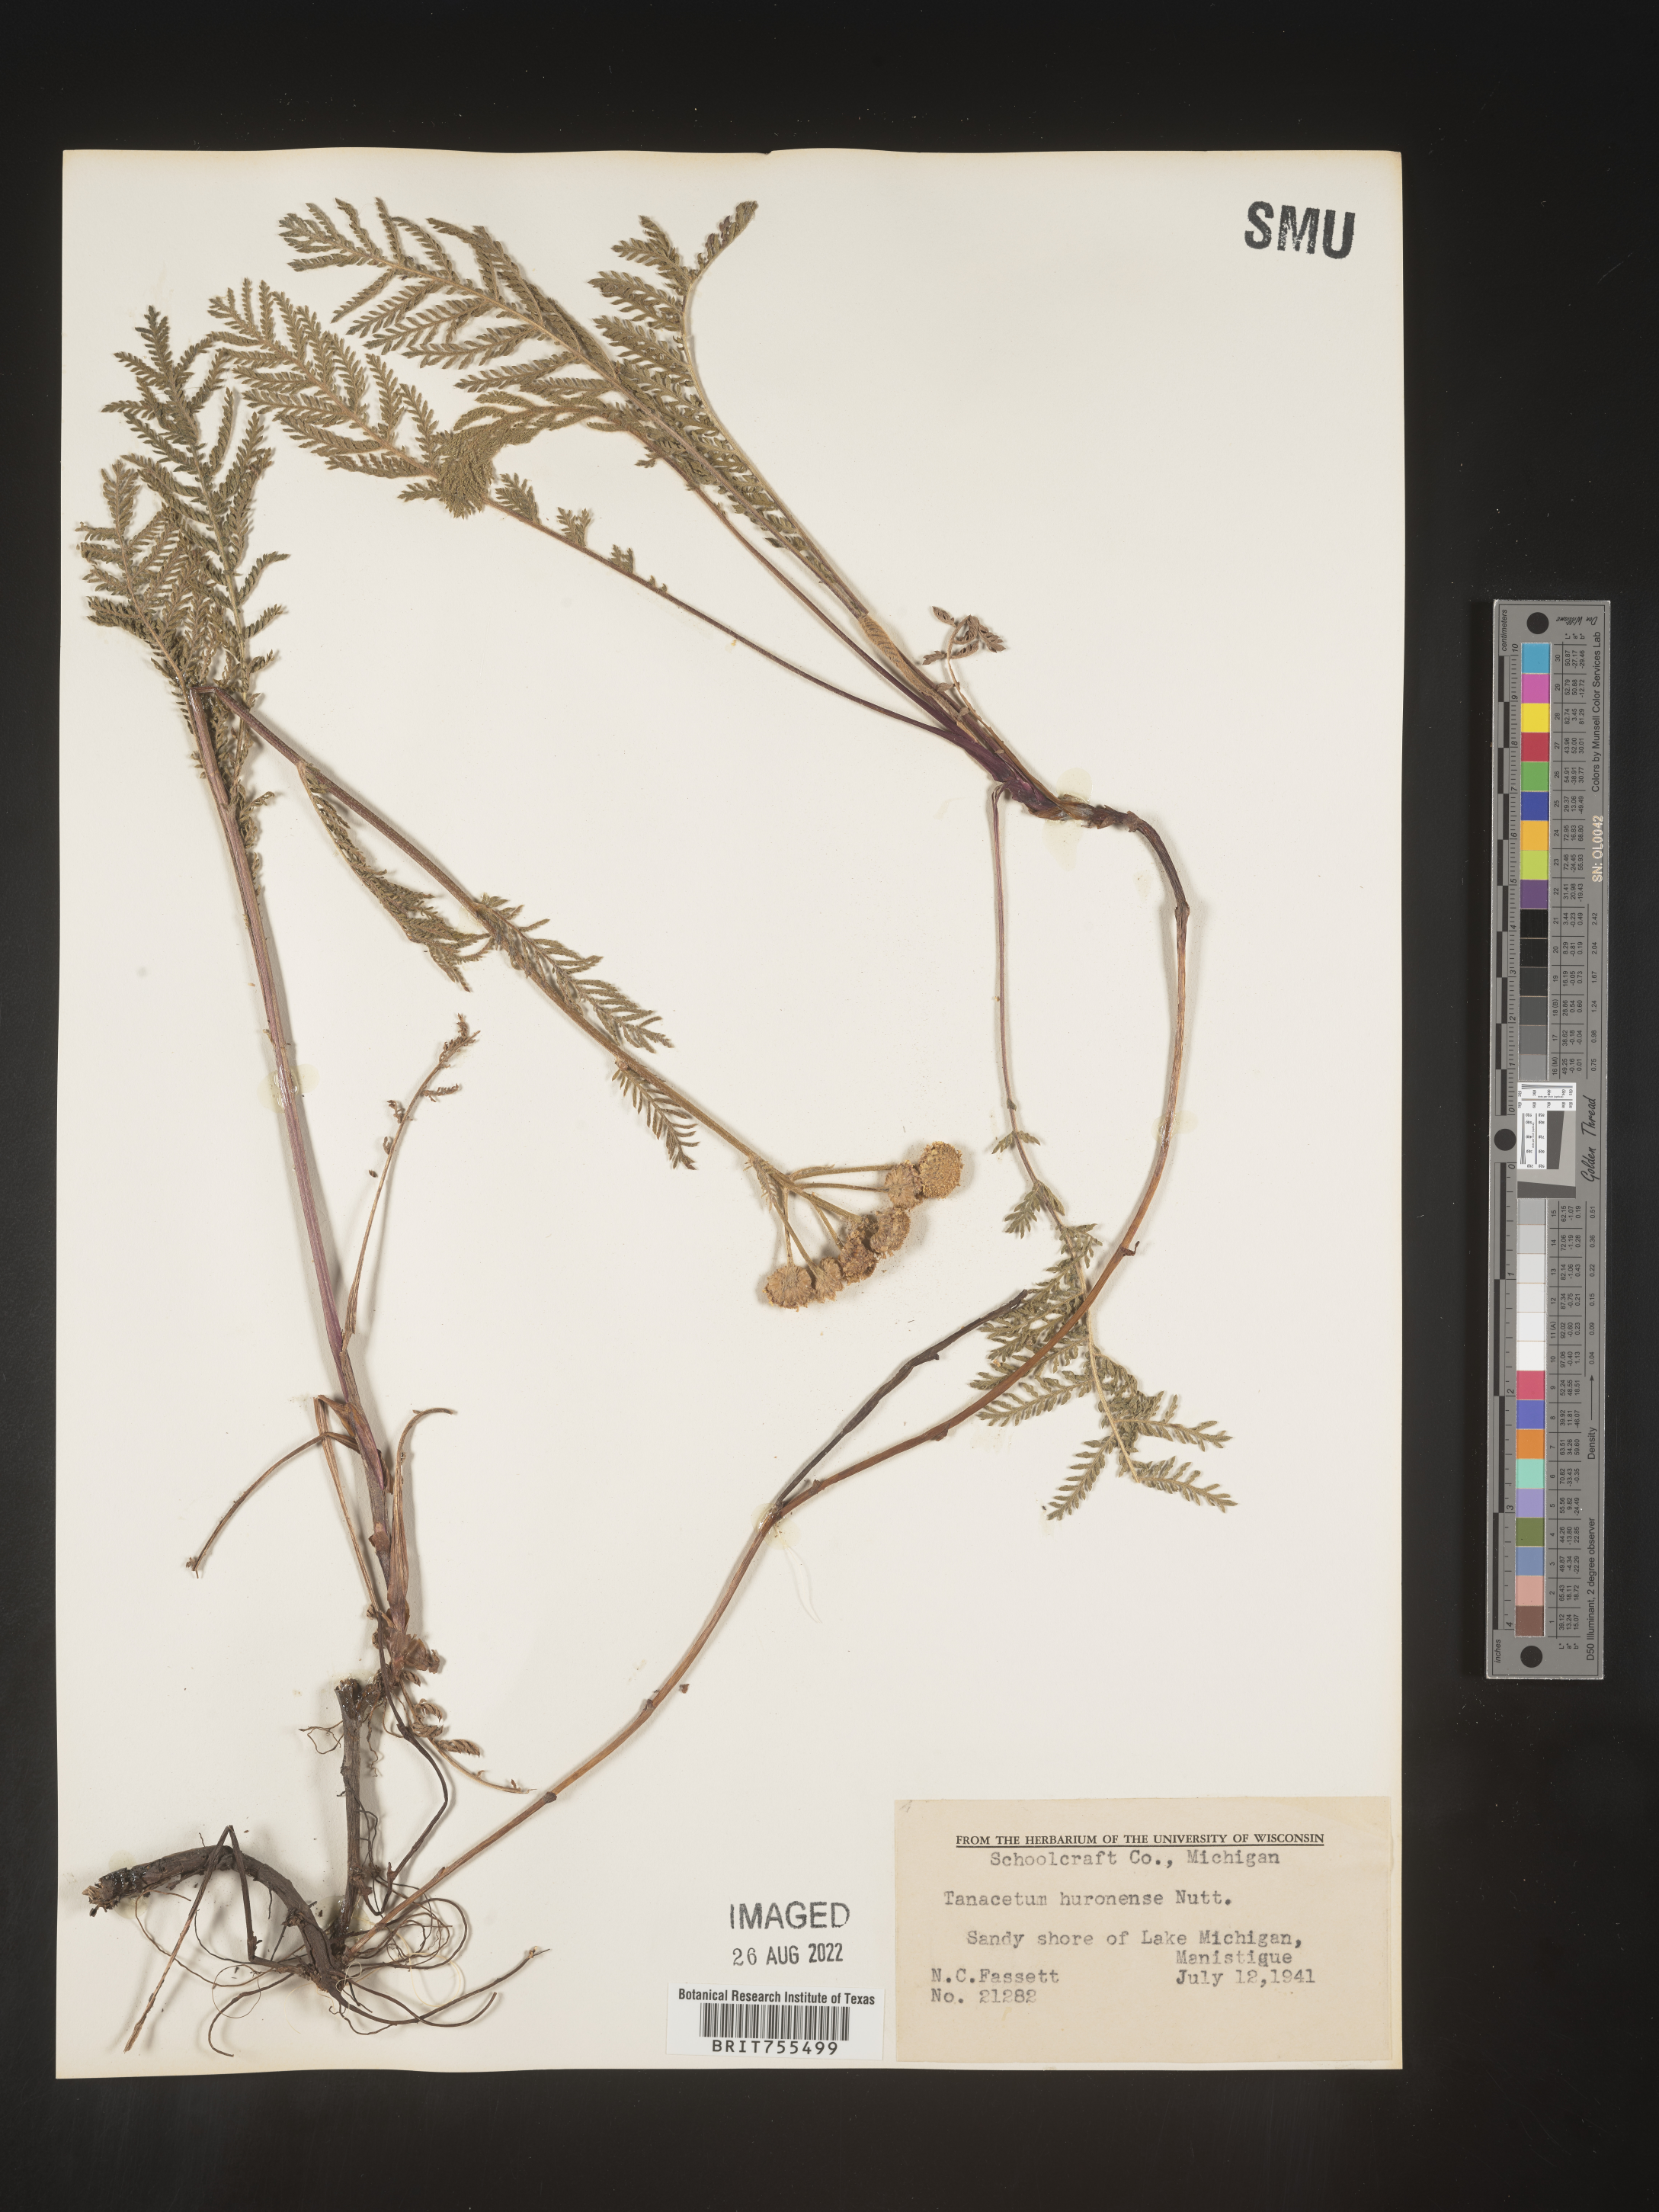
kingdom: Plantae
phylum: Tracheophyta
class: Magnoliopsida
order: Asterales
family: Asteraceae
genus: Tanacetum
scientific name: Tanacetum bipinnatum
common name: Dwarf tansy
